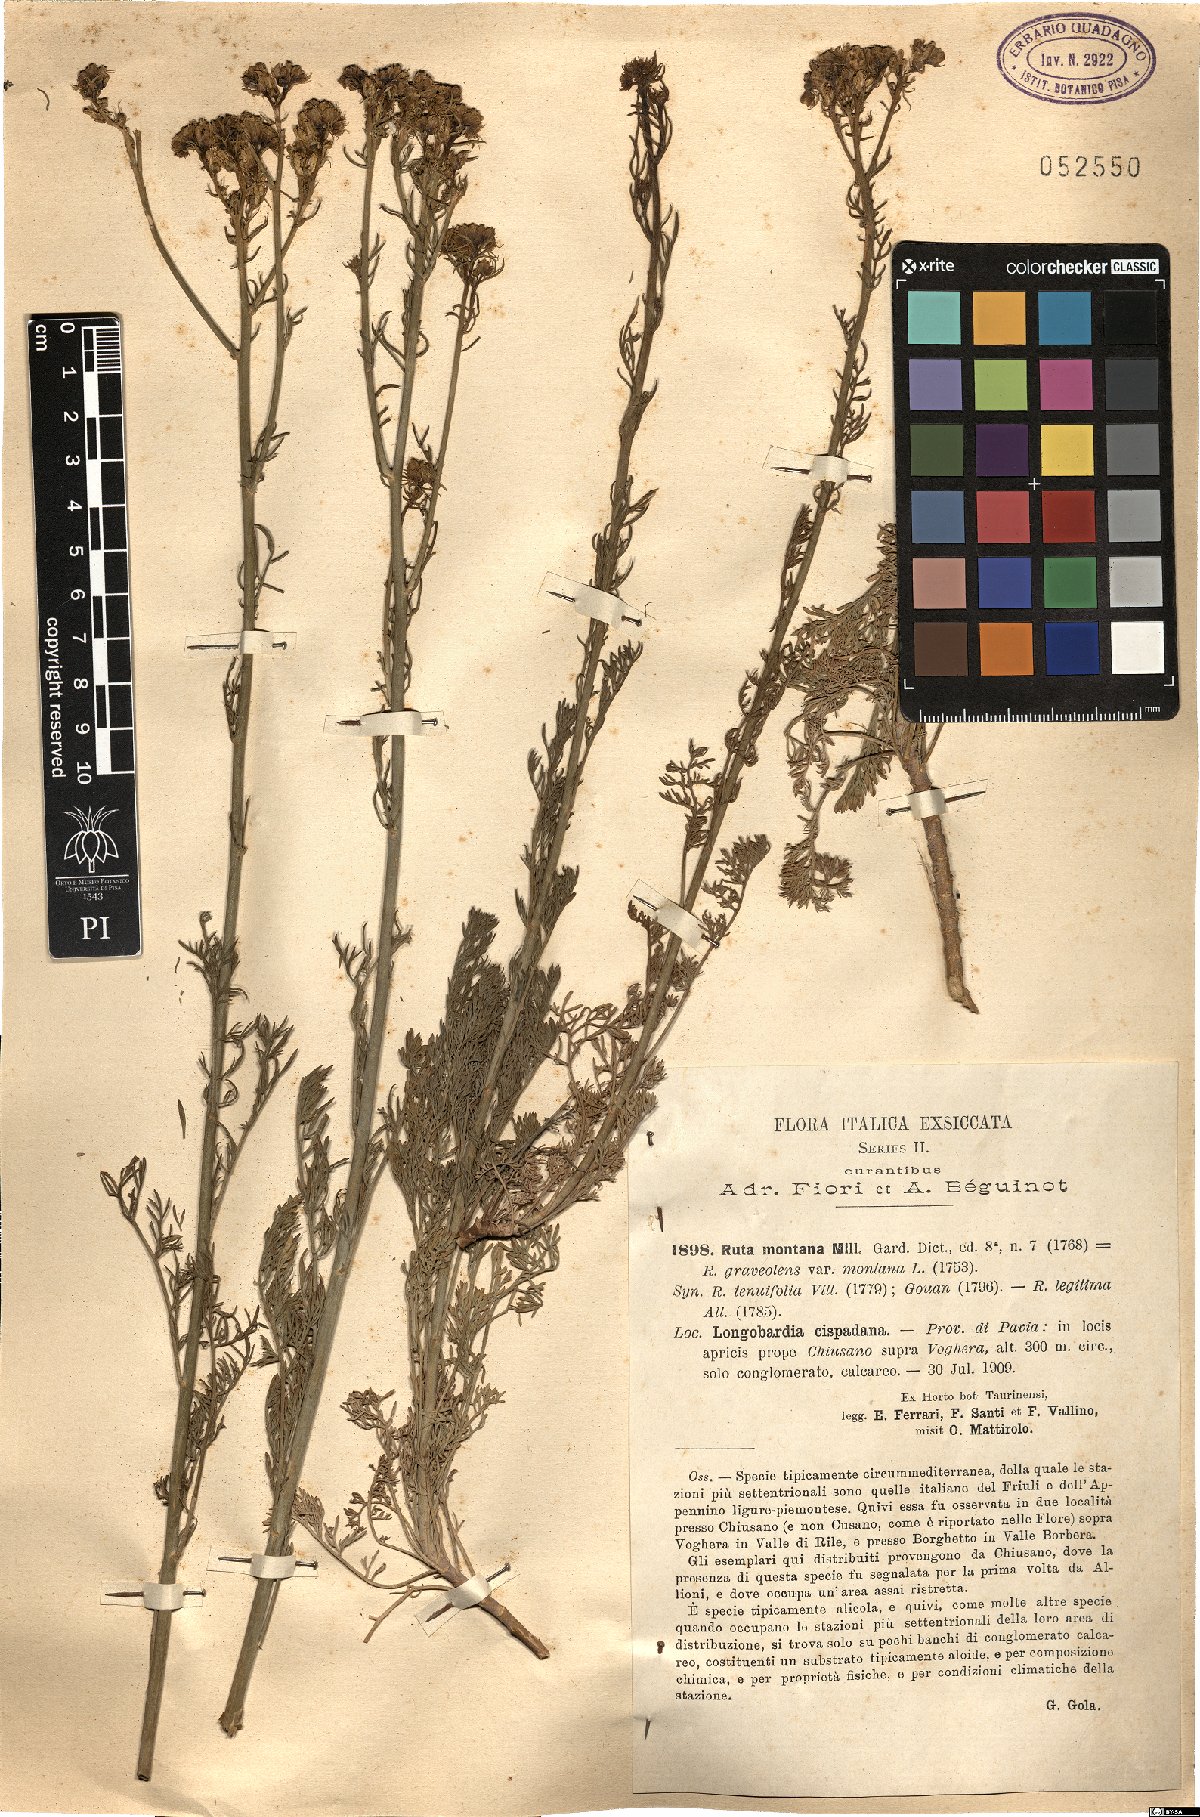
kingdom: Plantae
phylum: Tracheophyta
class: Magnoliopsida
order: Sapindales
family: Rutaceae
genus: Ruta
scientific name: Ruta montana
